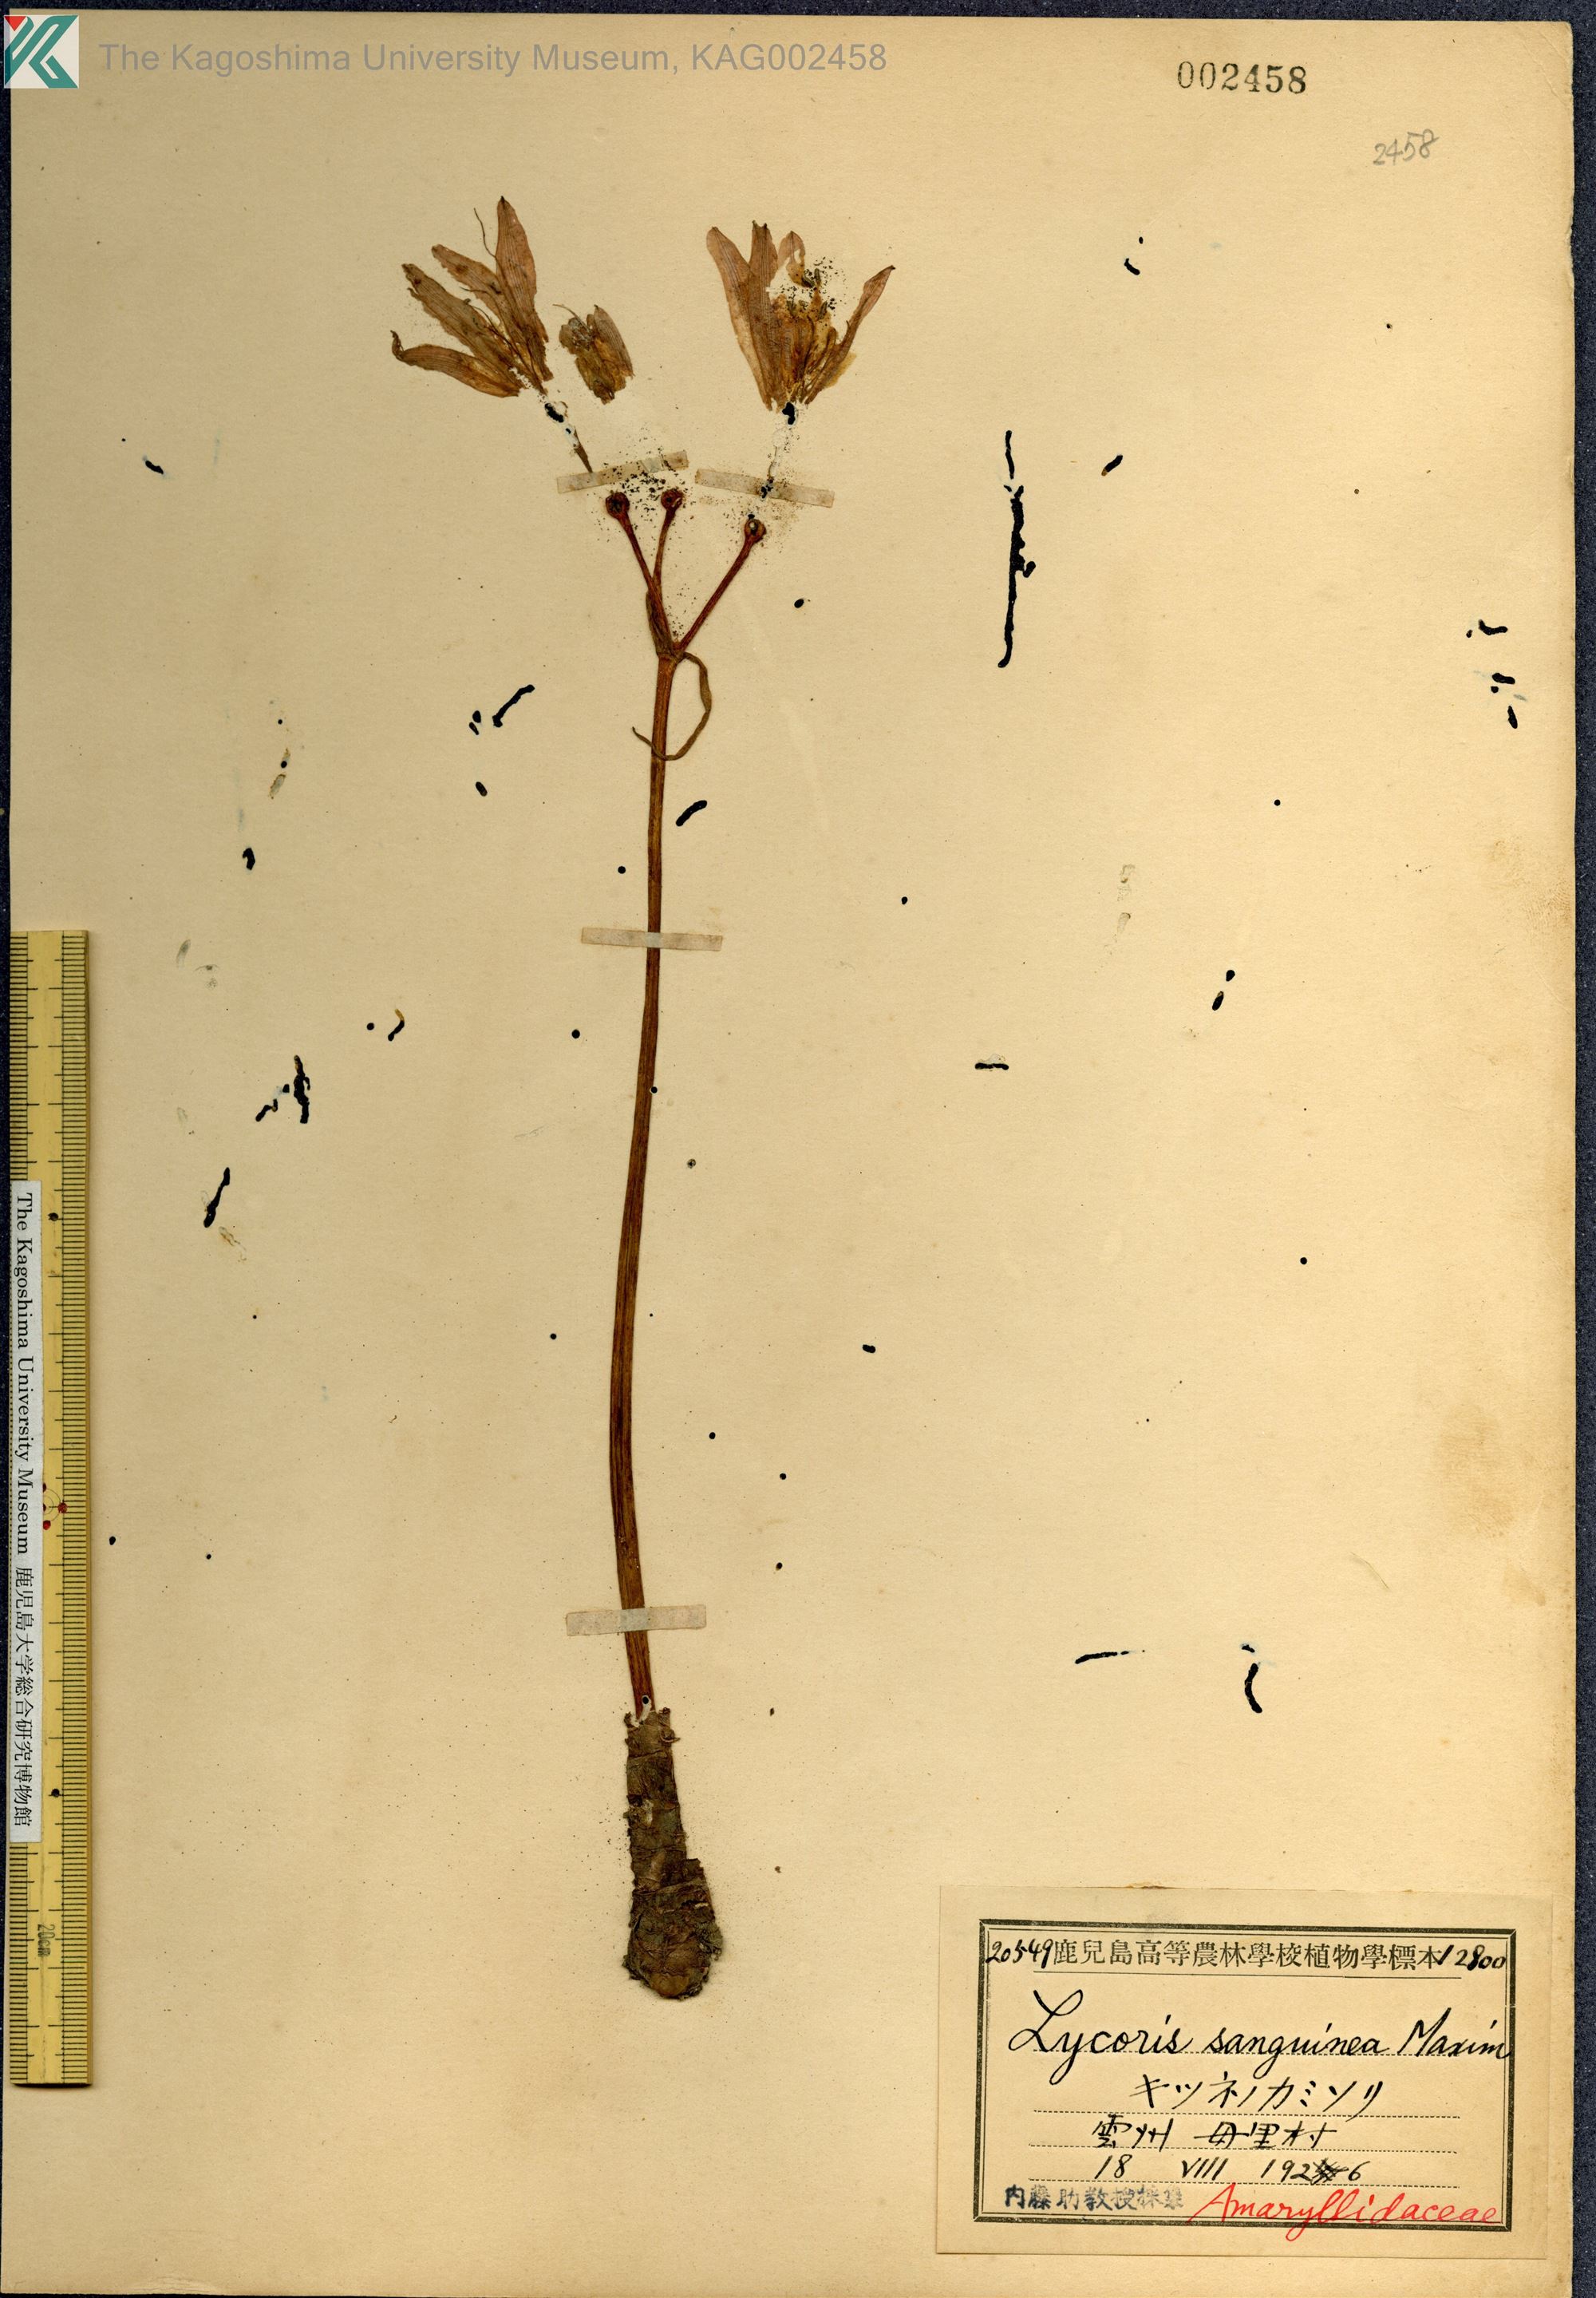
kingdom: Plantae
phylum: Tracheophyta
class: Liliopsida
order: Asparagales
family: Amaryllidaceae
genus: Lycoris
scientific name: Lycoris sanguinea
